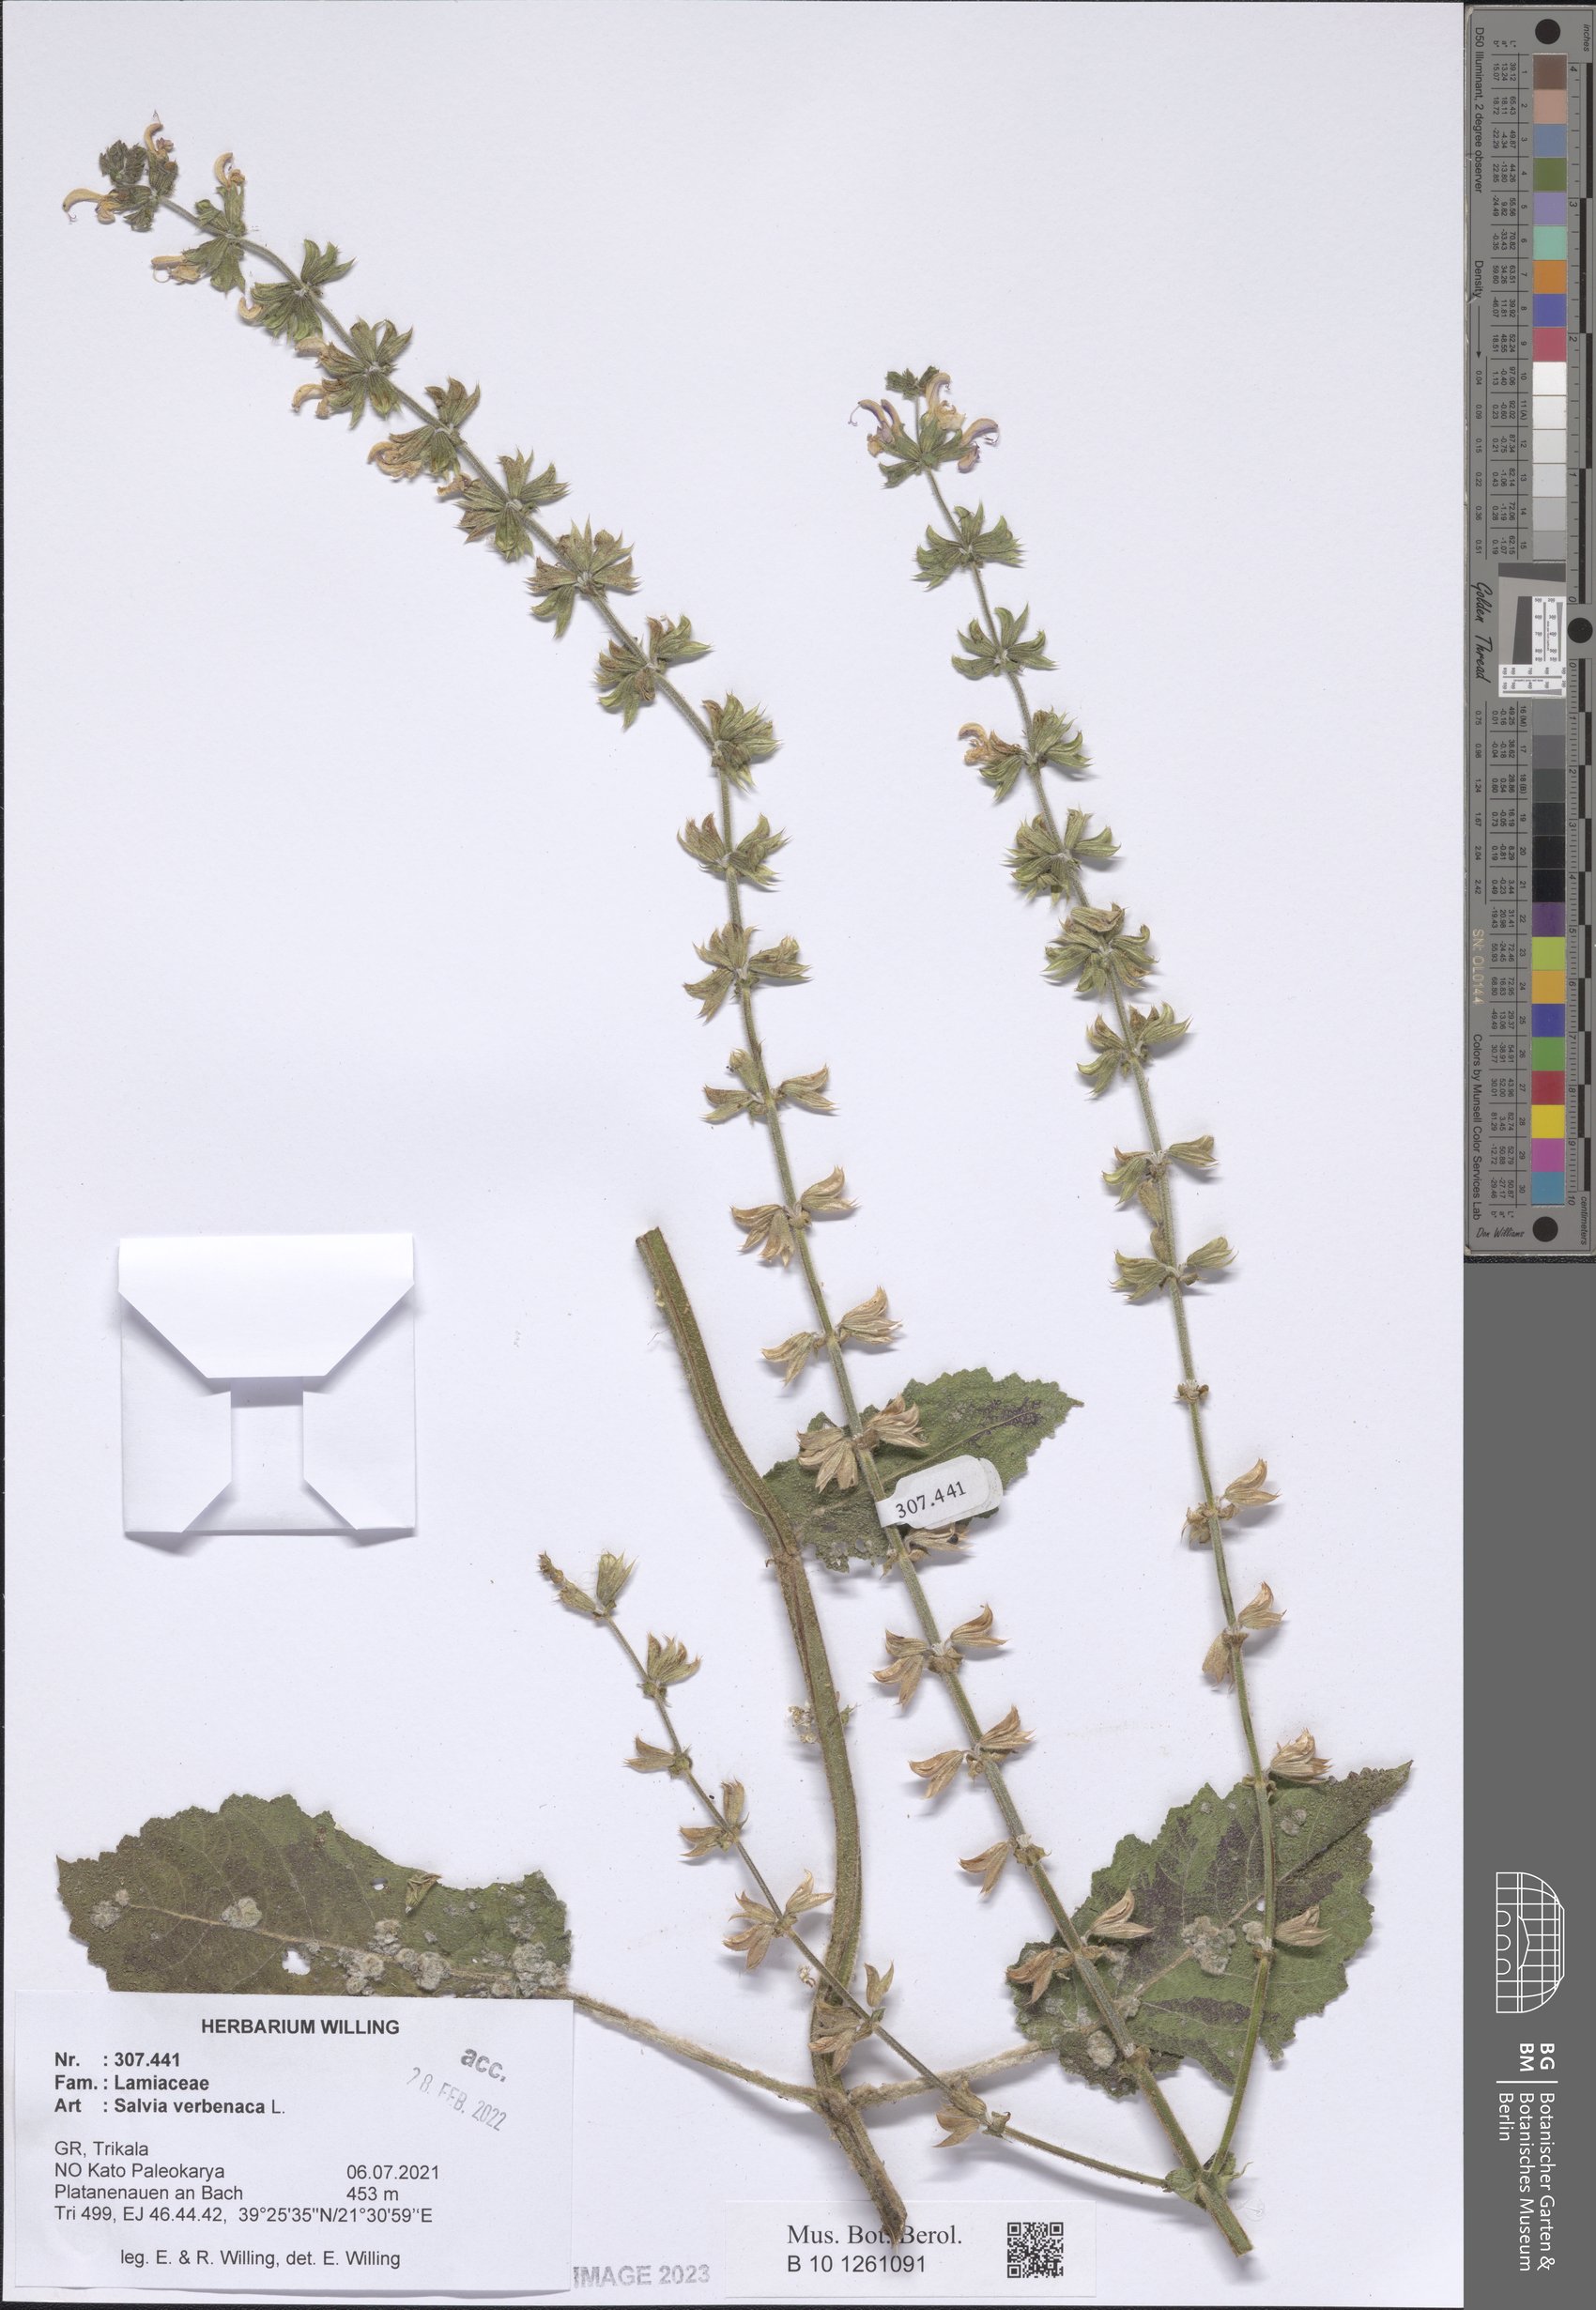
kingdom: Plantae
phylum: Tracheophyta
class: Magnoliopsida
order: Lamiales
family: Lamiaceae
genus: Salvia
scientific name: Salvia verbenaca
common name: Wild clary
